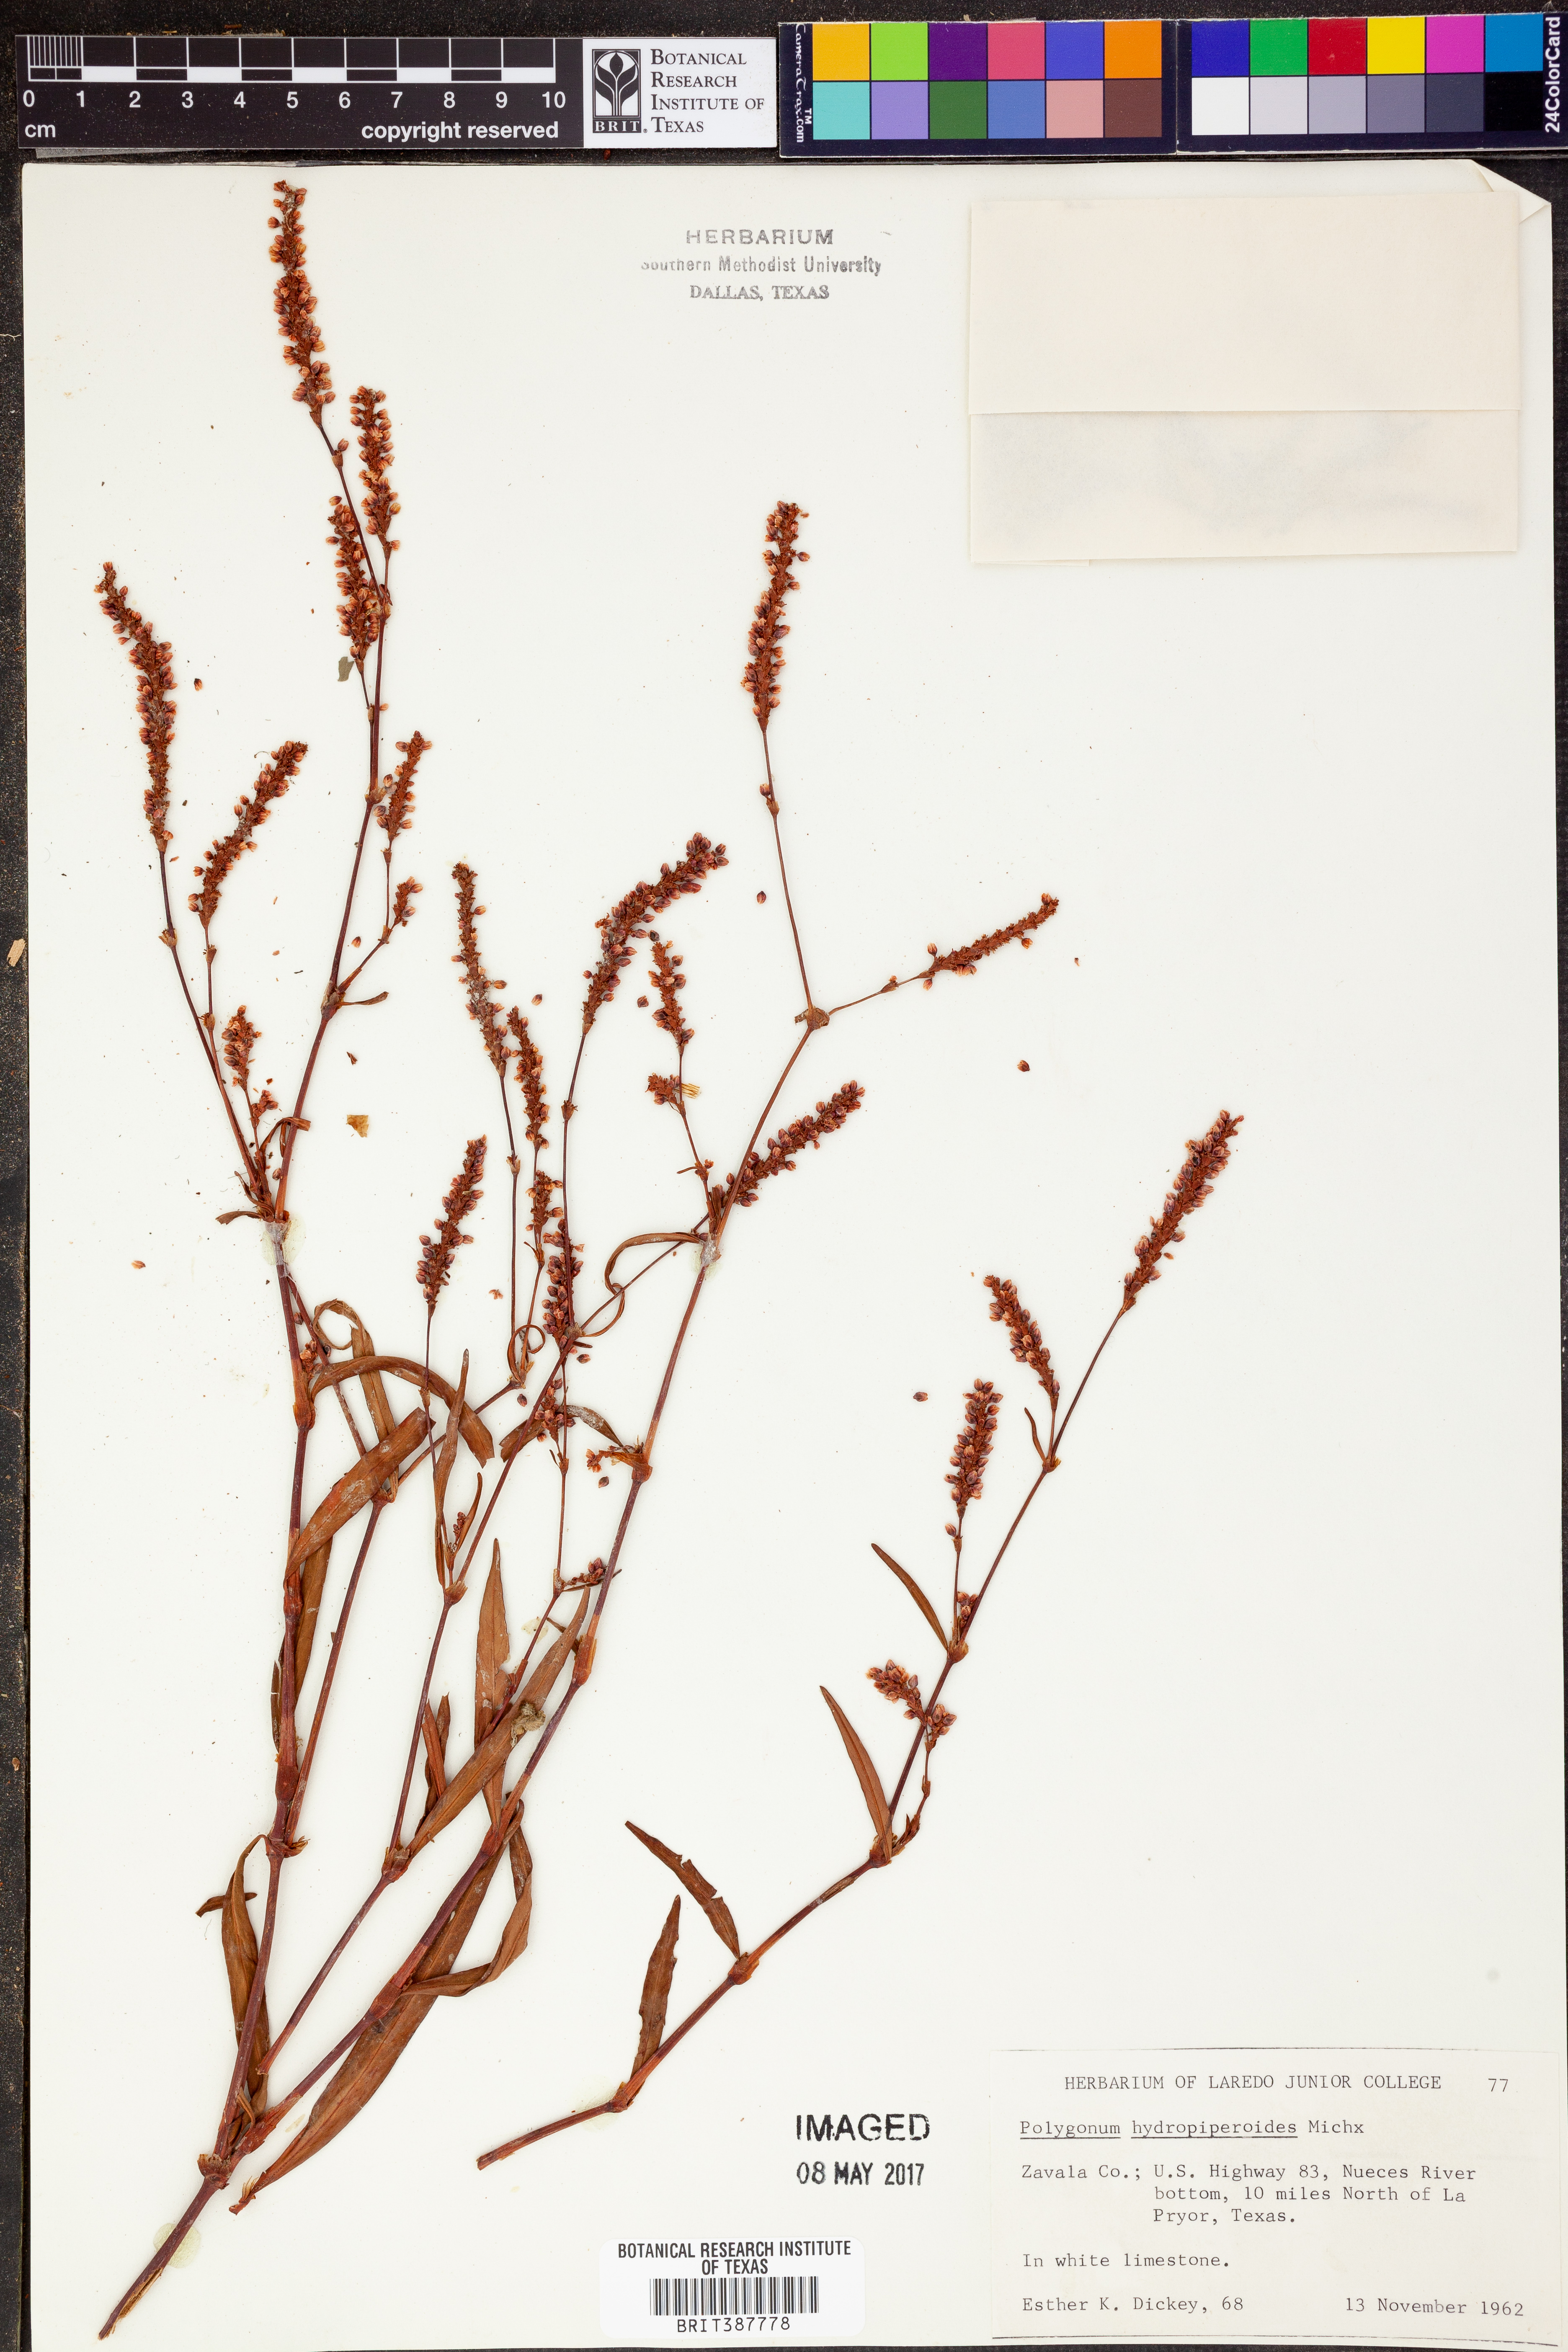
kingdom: Plantae
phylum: Tracheophyta
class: Magnoliopsida
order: Caryophyllales
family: Polygonaceae
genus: Persicaria
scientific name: Persicaria hydropiperoides
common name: Swamp smartweed
